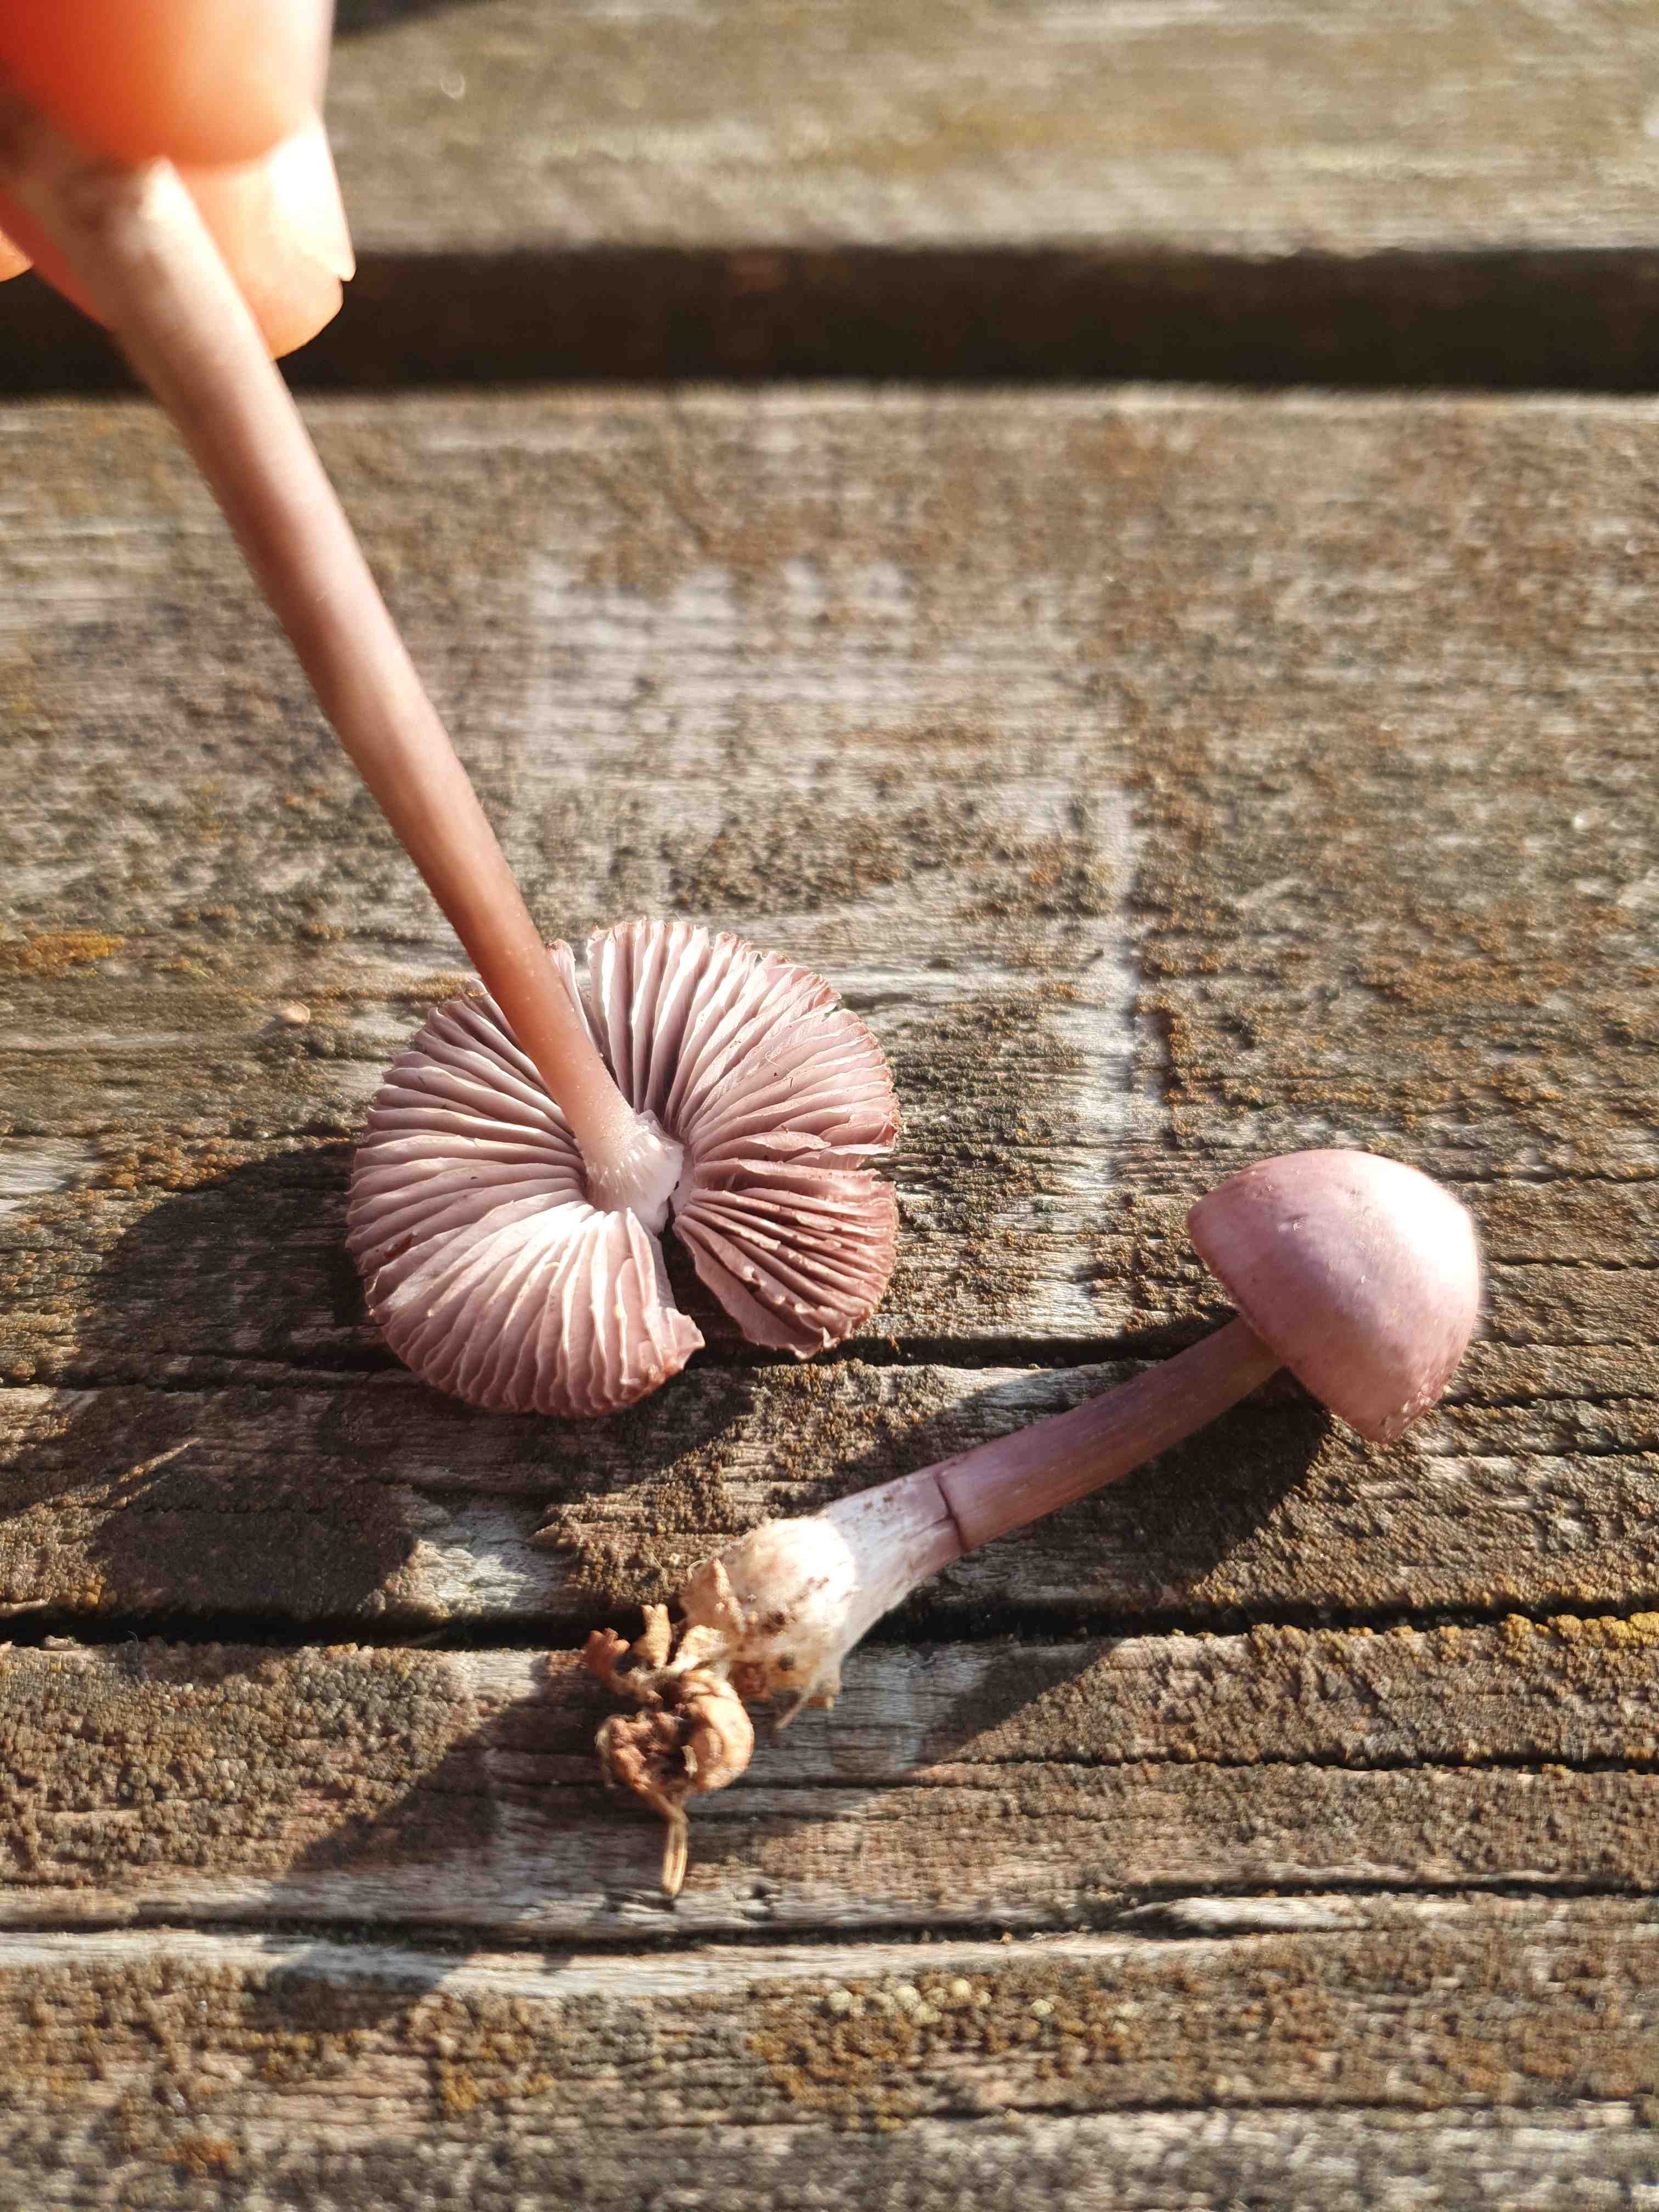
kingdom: Fungi
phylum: Basidiomycota
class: Agaricomycetes
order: Agaricales
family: Mycenaceae
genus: Mycena
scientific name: Mycena rosea
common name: rosa huesvamp
